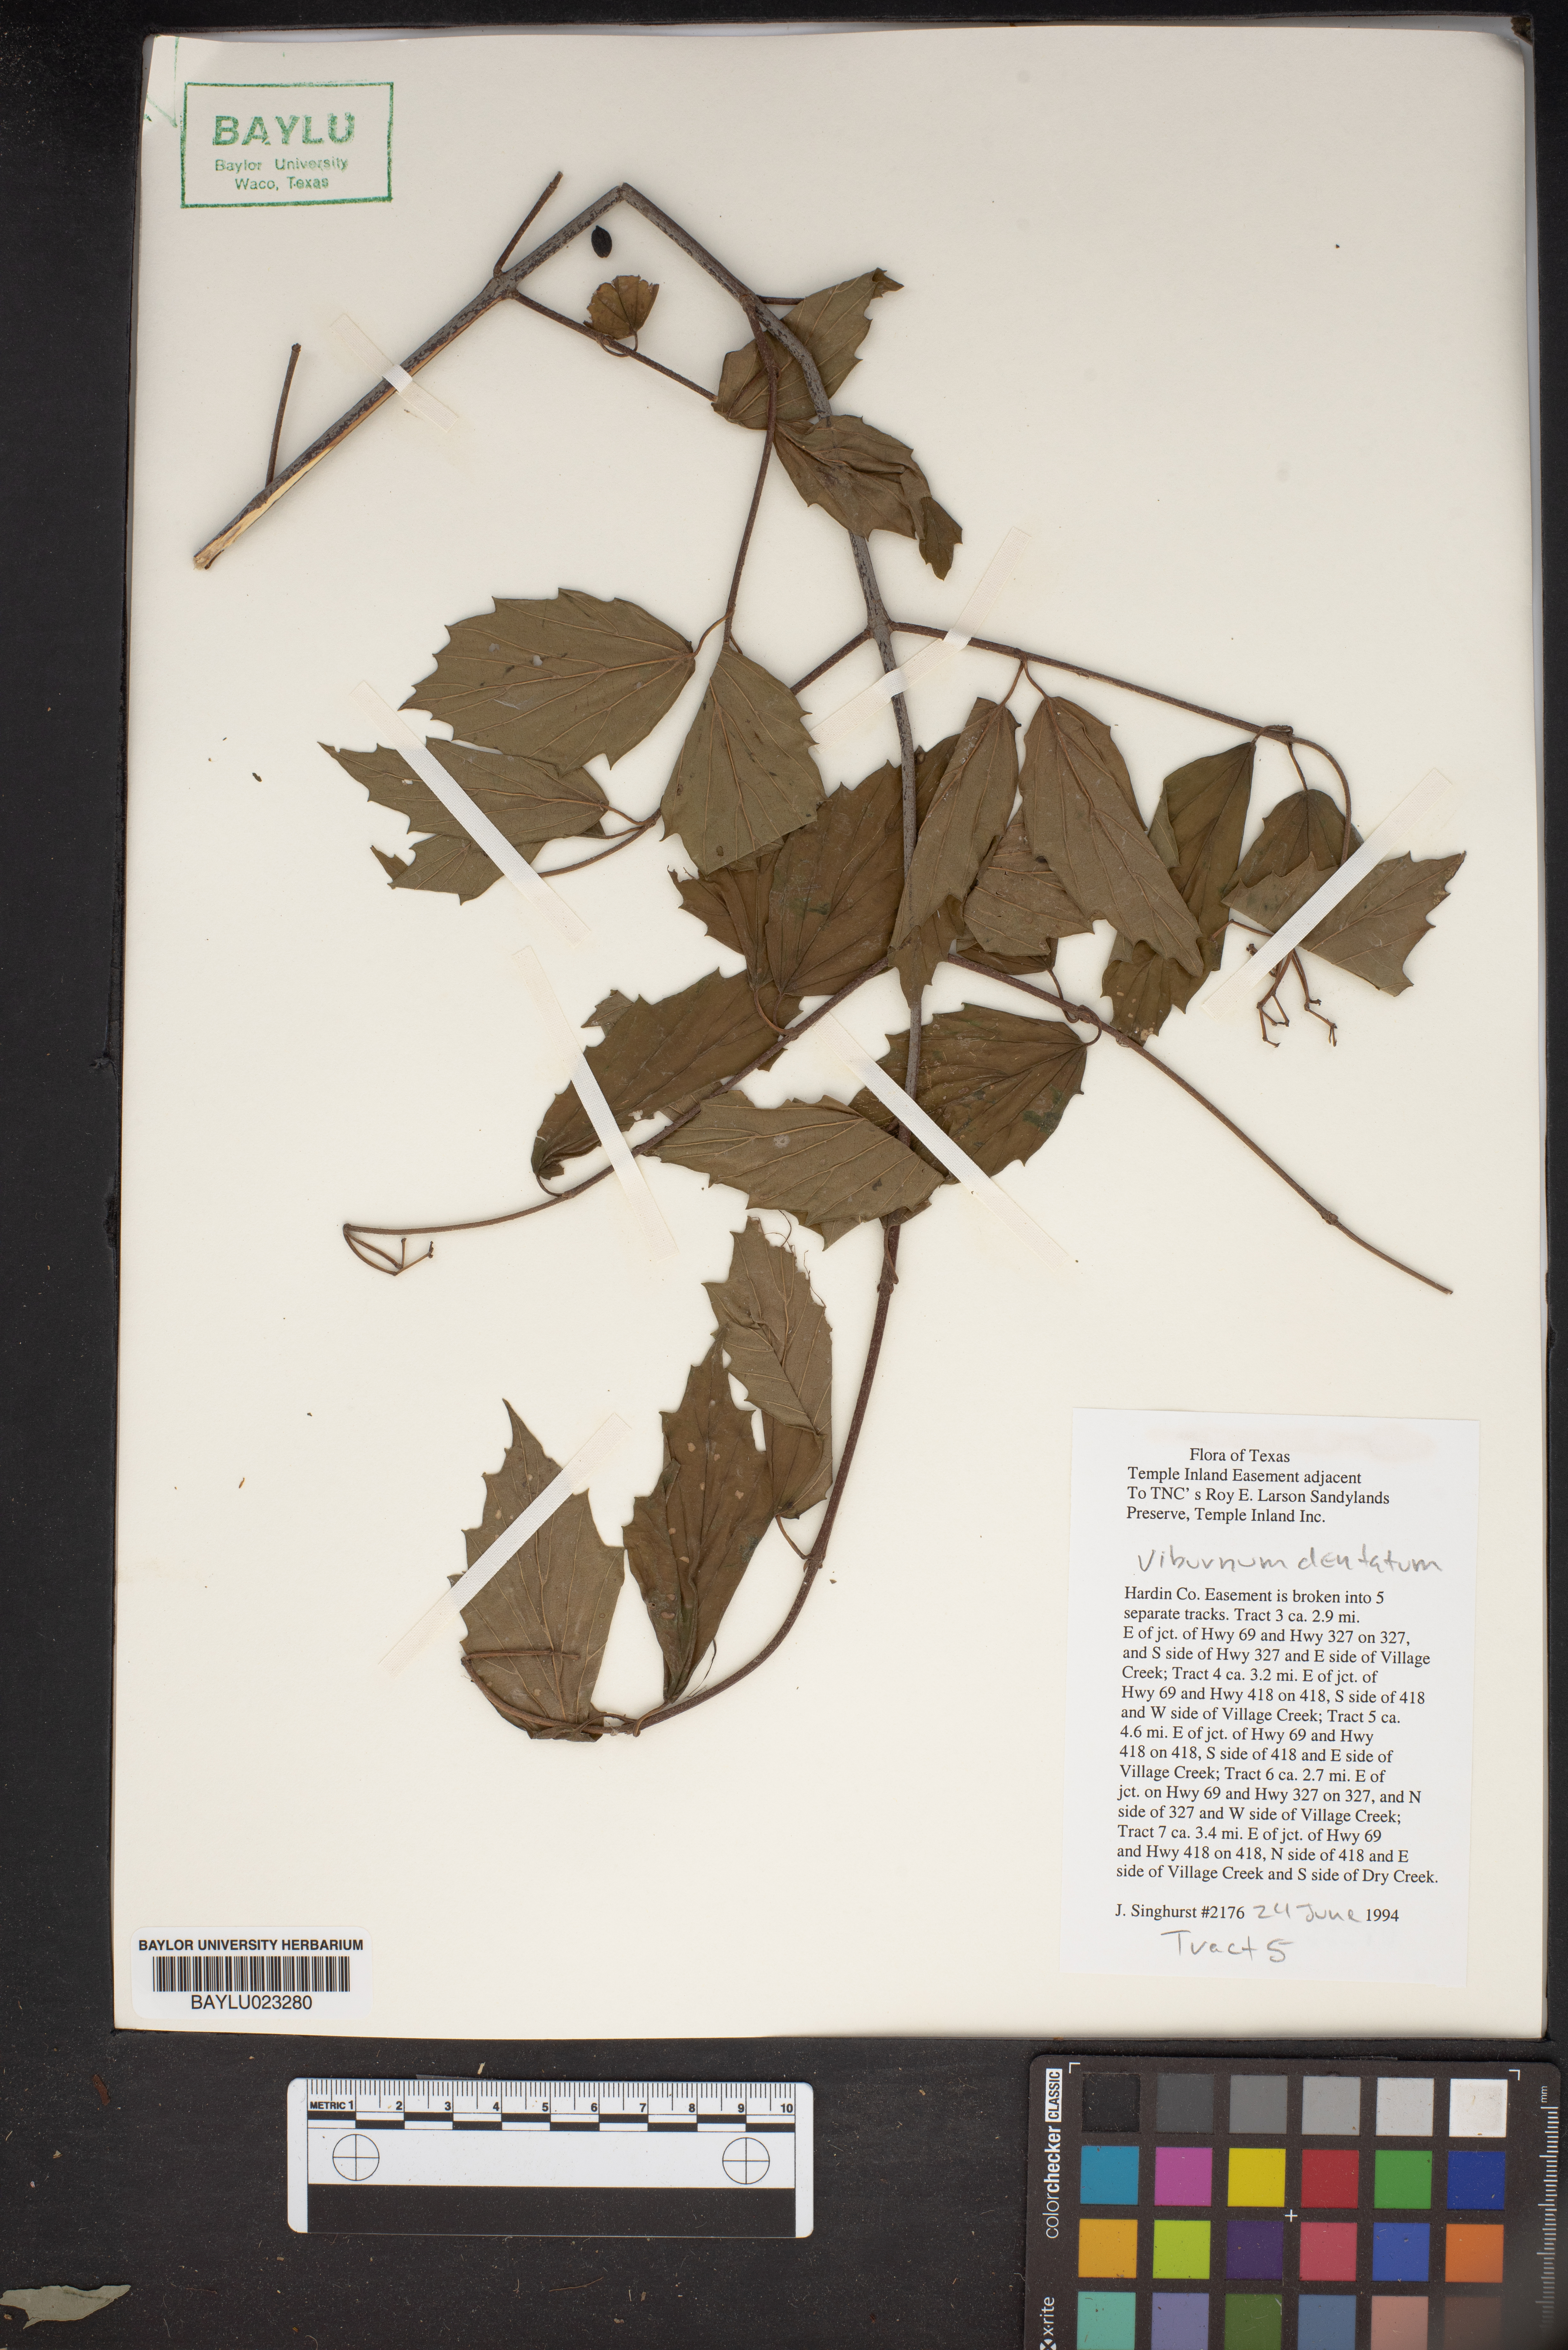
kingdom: Plantae
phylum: Tracheophyta
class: Magnoliopsida
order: Dipsacales
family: Viburnaceae
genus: Viburnum
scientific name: Viburnum dentatum
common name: Arrow-wood
